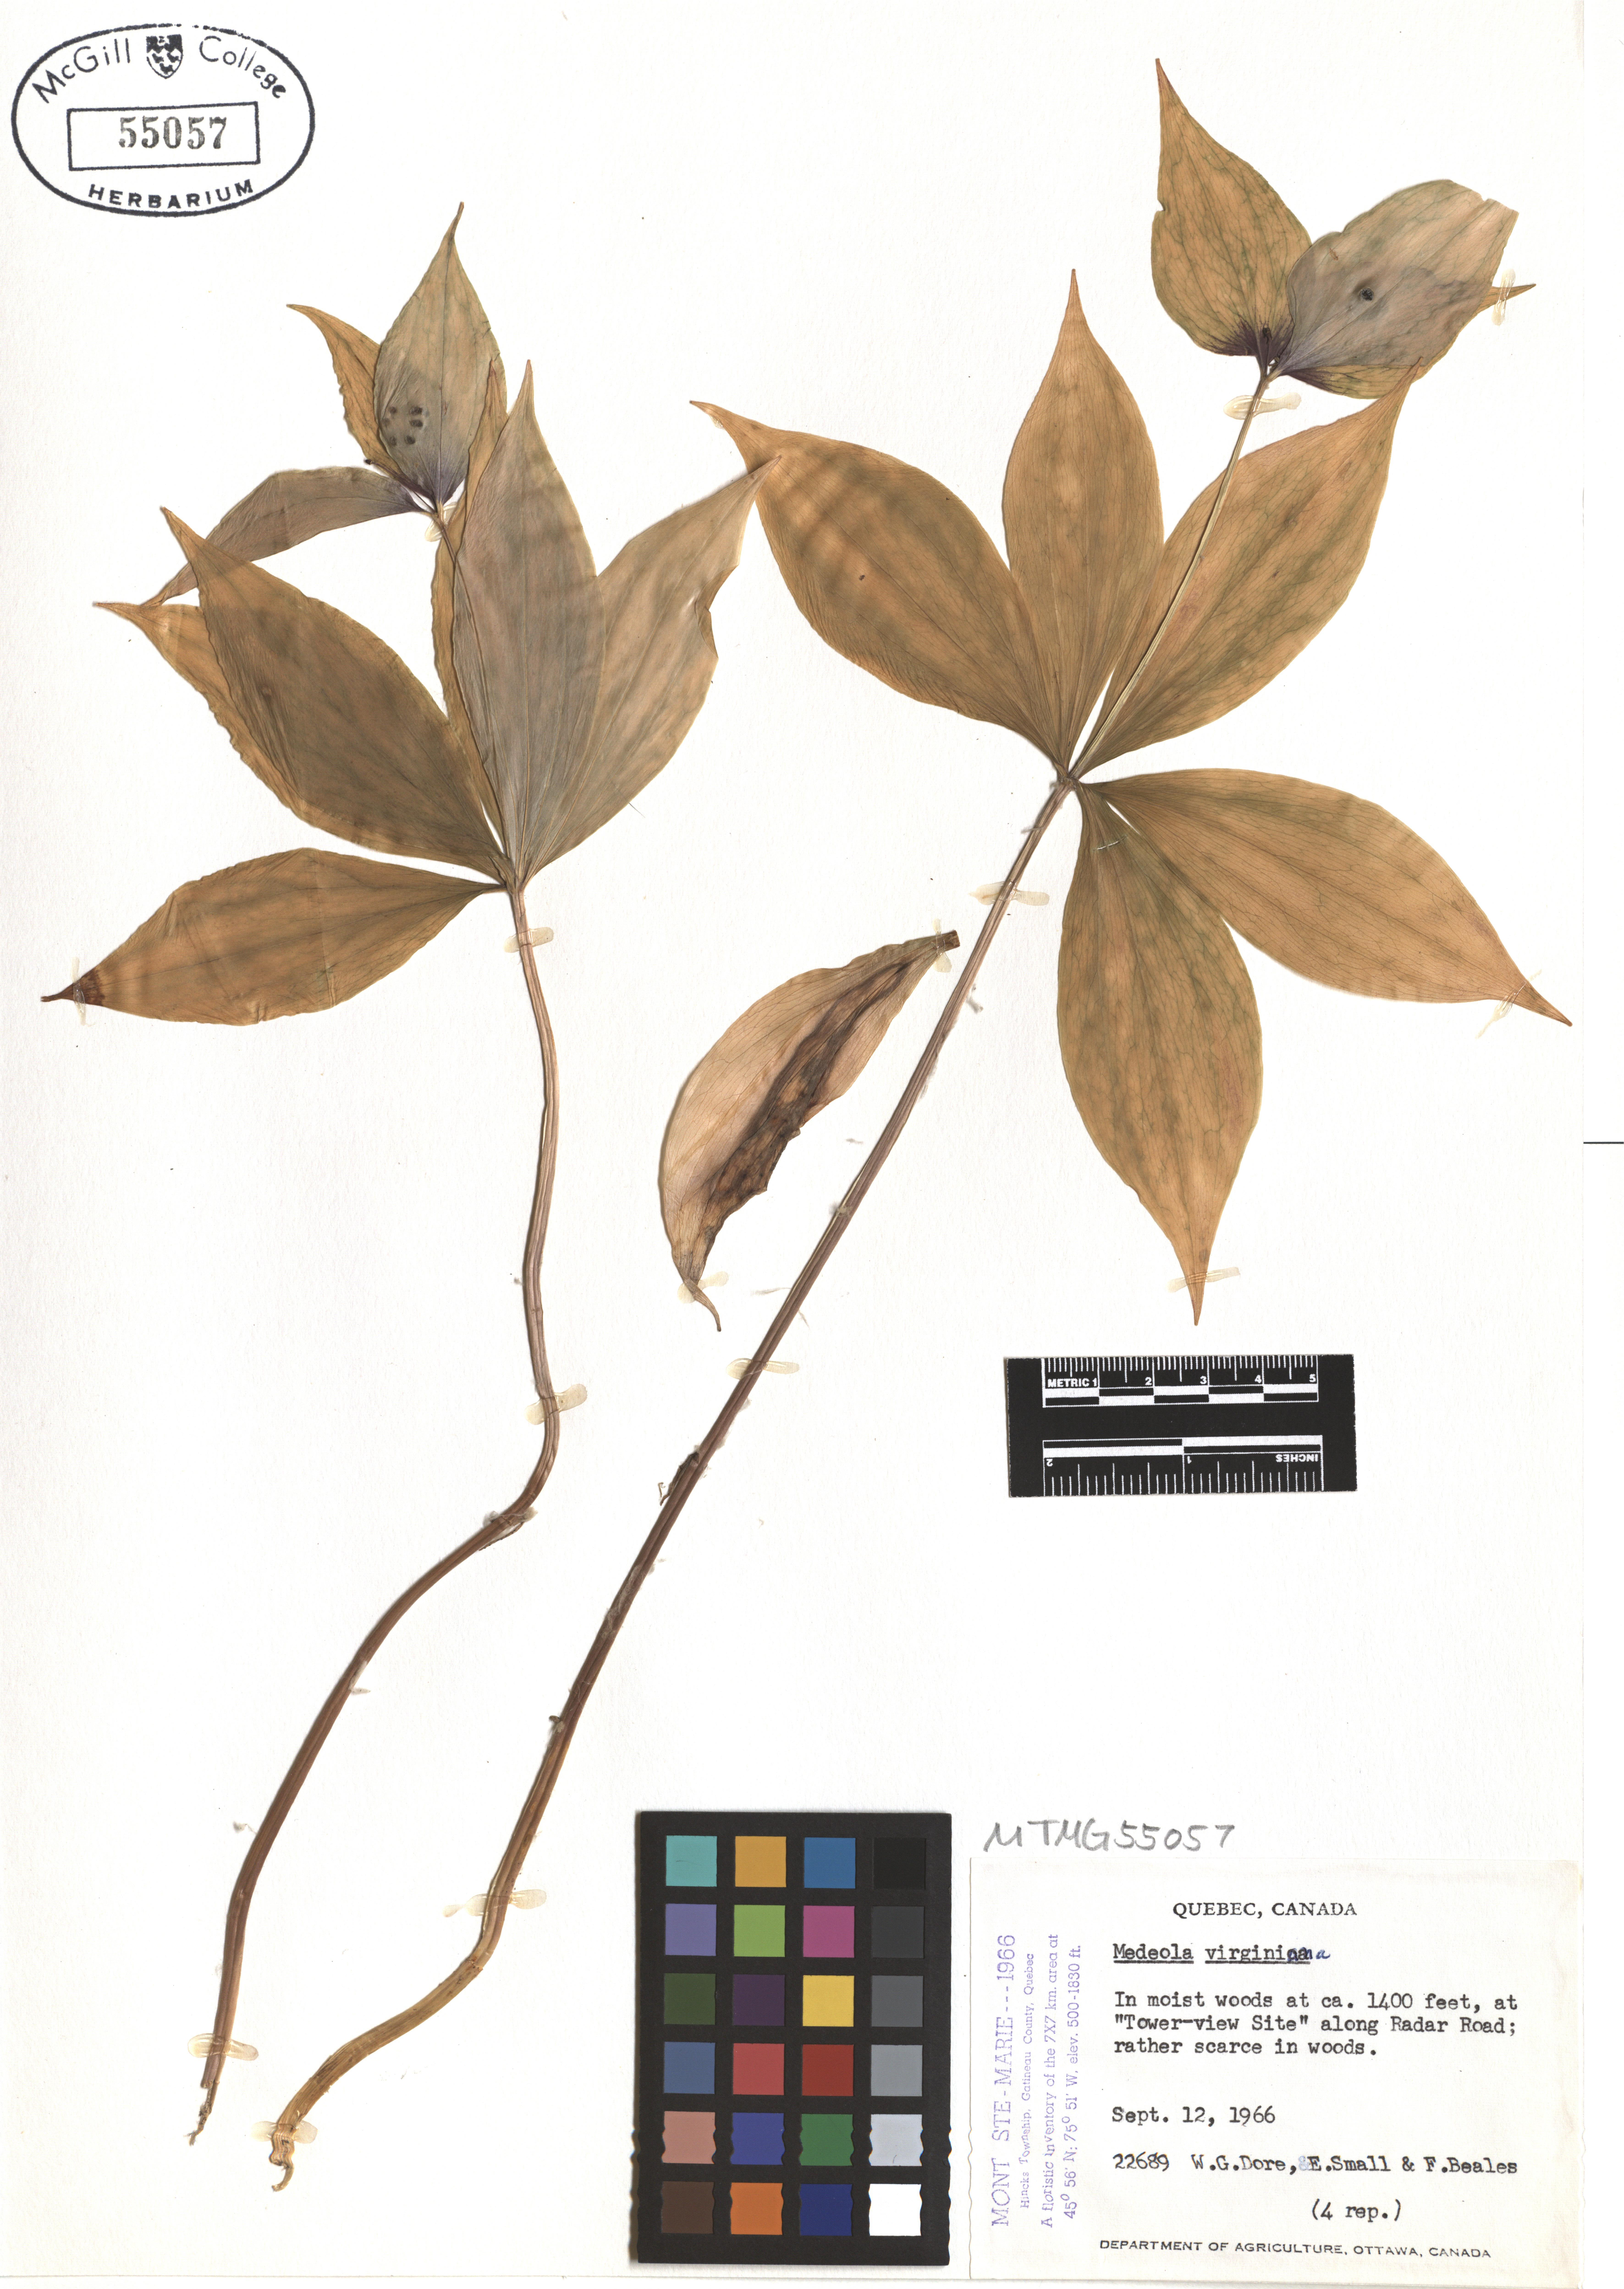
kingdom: Plantae
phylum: Tracheophyta
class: Liliopsida
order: Liliales
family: Liliaceae
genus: Medeola
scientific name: Medeola virginiana
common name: Indian cucumber-root
